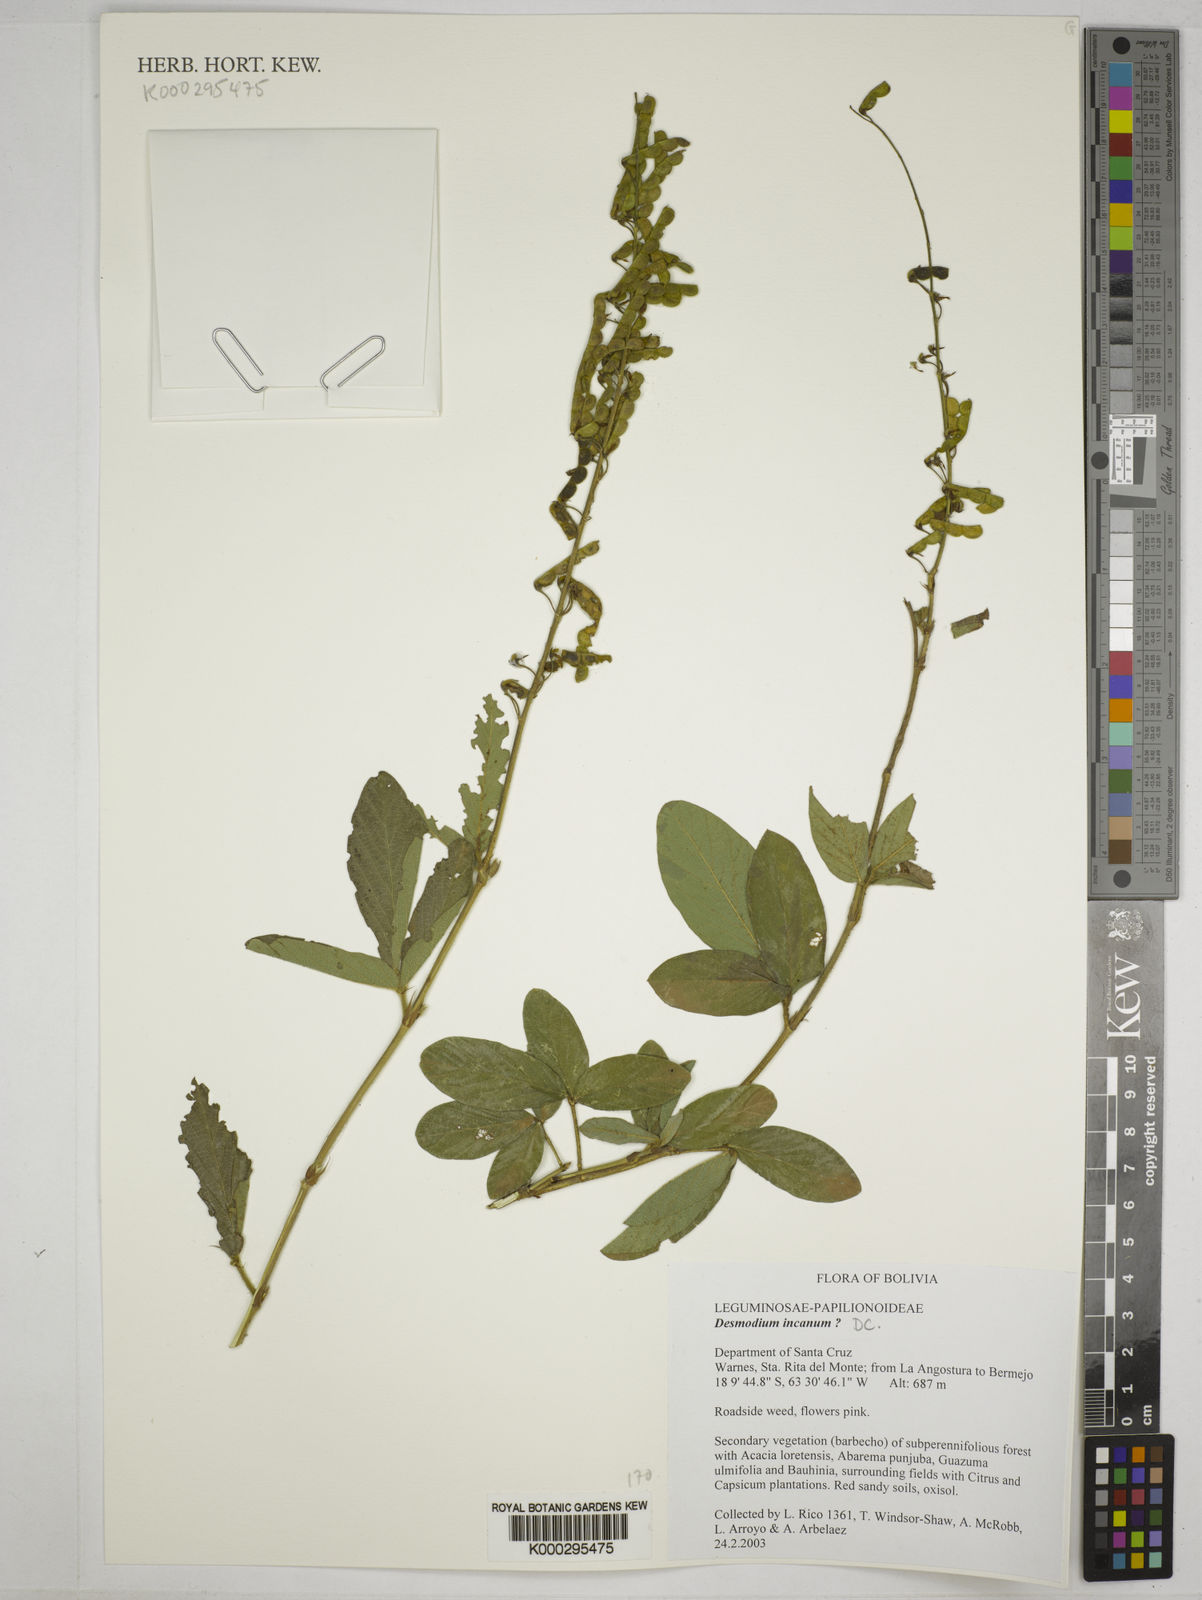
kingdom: Plantae
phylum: Tracheophyta
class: Magnoliopsida
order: Fabales
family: Fabaceae
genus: Desmodium
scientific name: Desmodium incanum
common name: Tickclover
